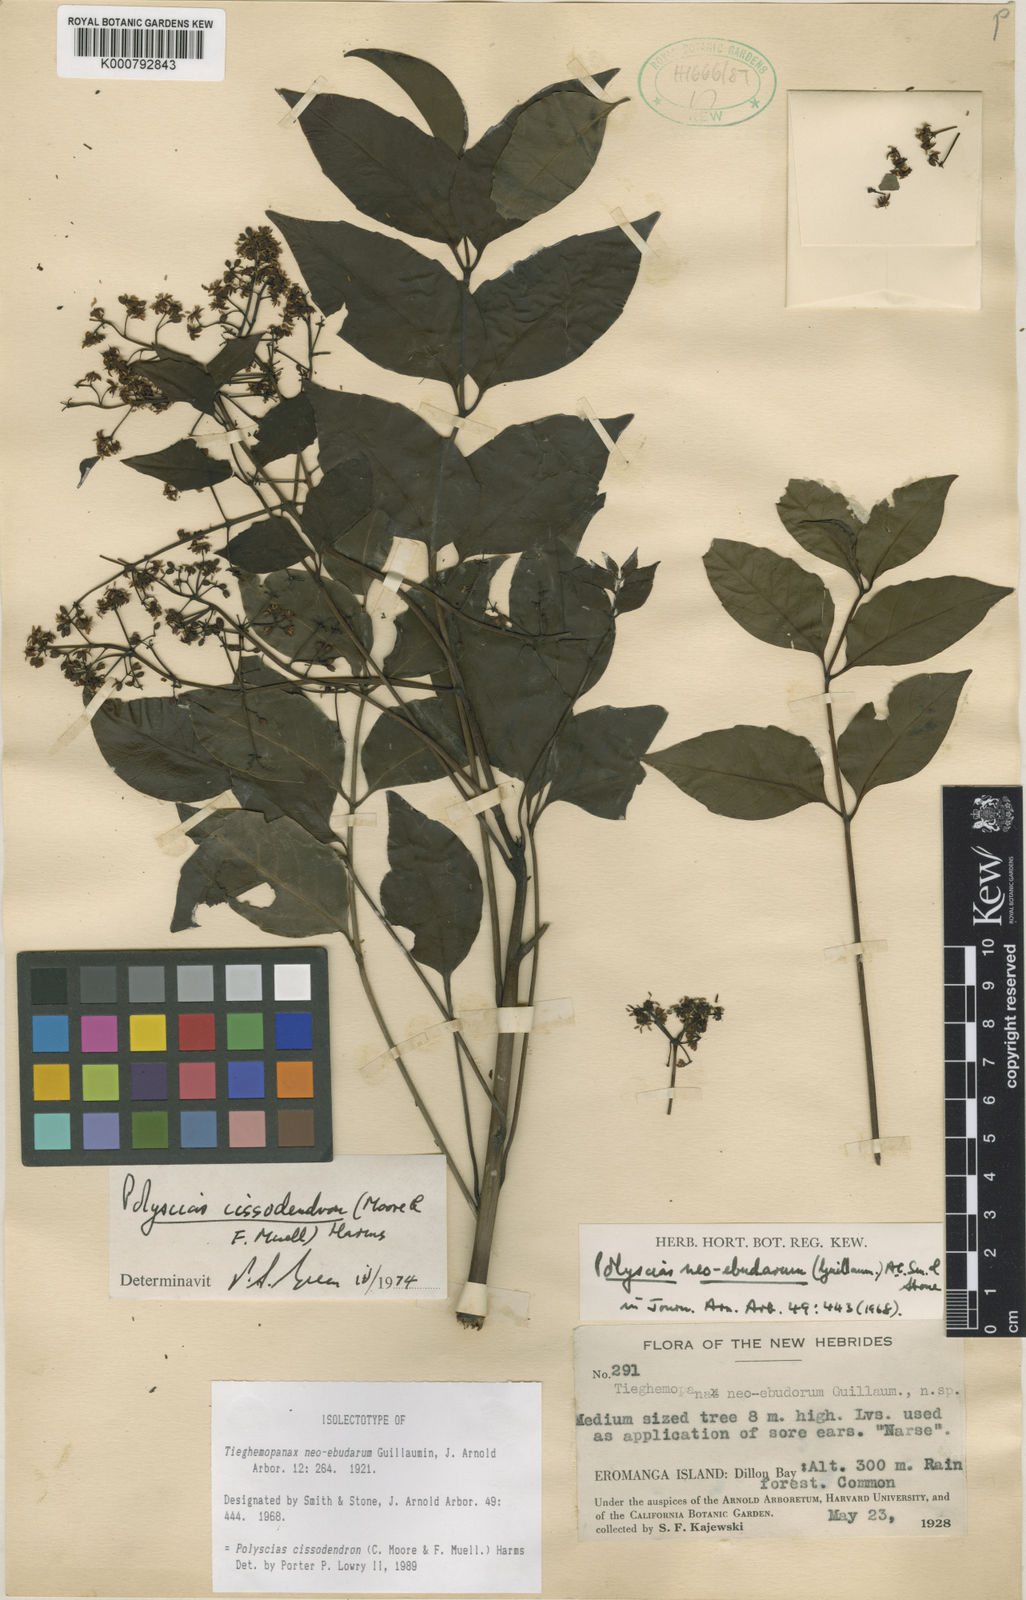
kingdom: Plantae
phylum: Tracheophyta
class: Magnoliopsida
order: Apiales
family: Araliaceae
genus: Polyscias
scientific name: Polyscias cissodendron
